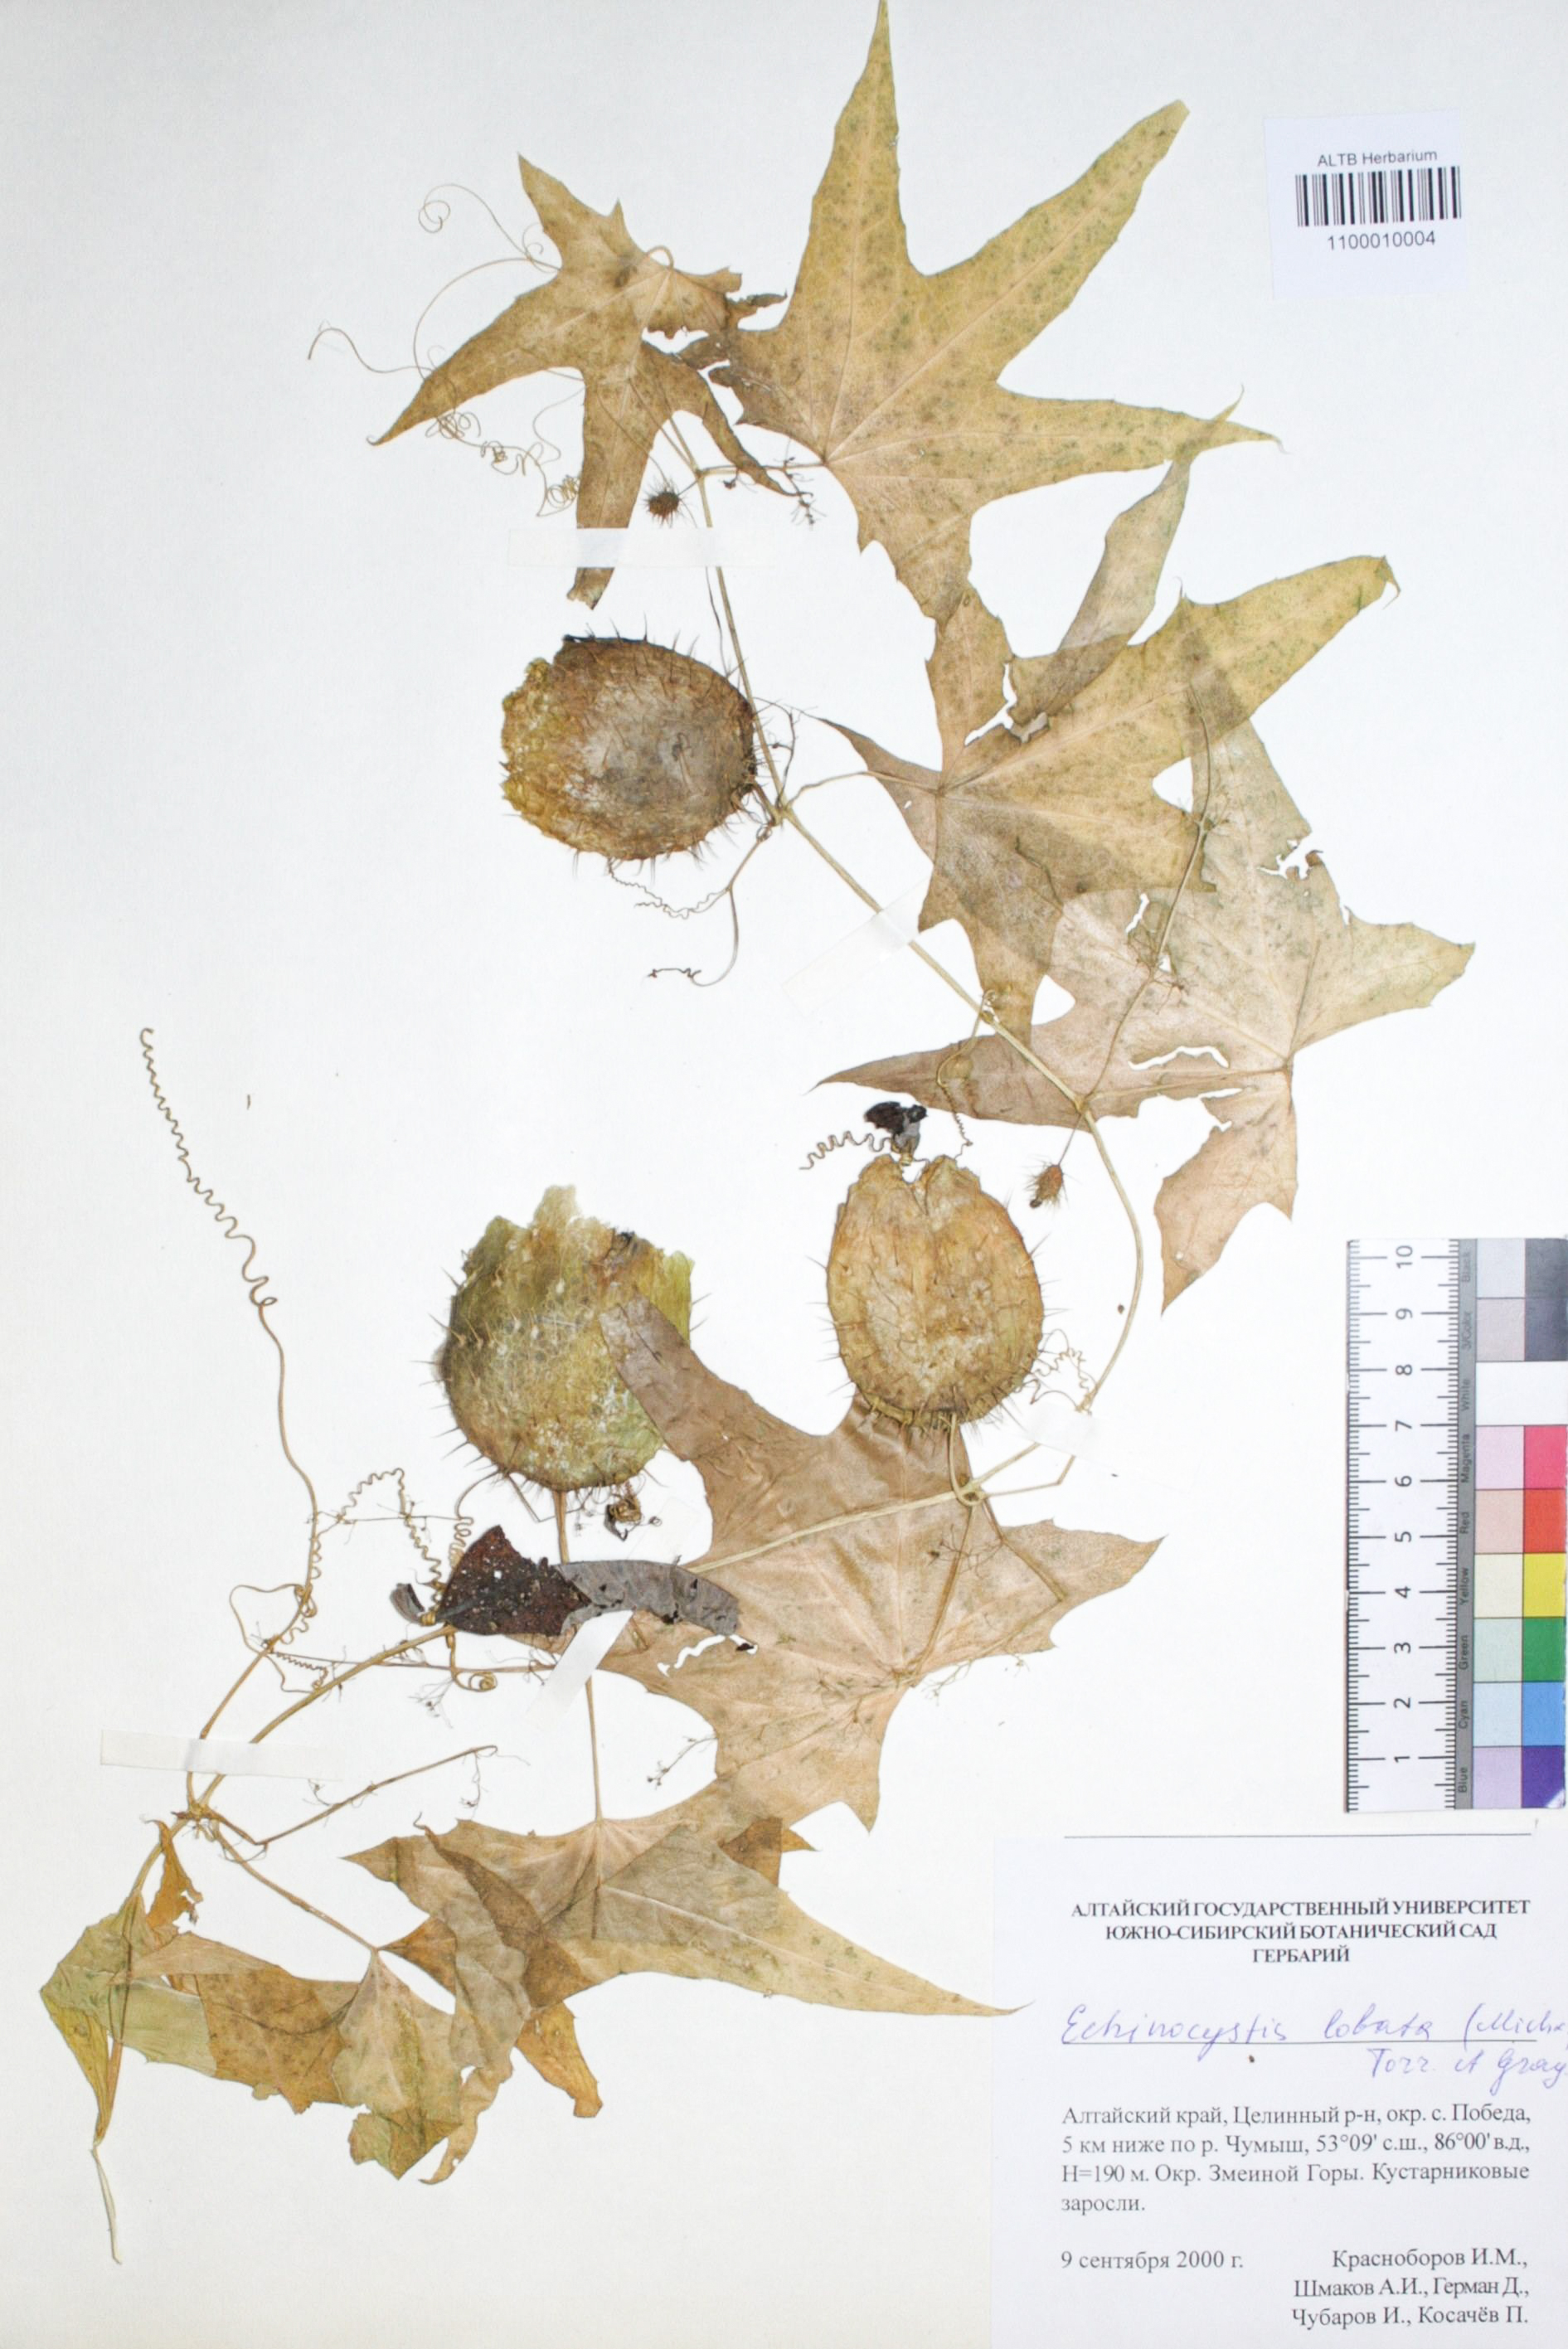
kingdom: Plantae
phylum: Tracheophyta
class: Magnoliopsida
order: Cucurbitales
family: Cucurbitaceae
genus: Echinocystis
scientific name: Echinocystis lobata
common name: Wild cucumber
